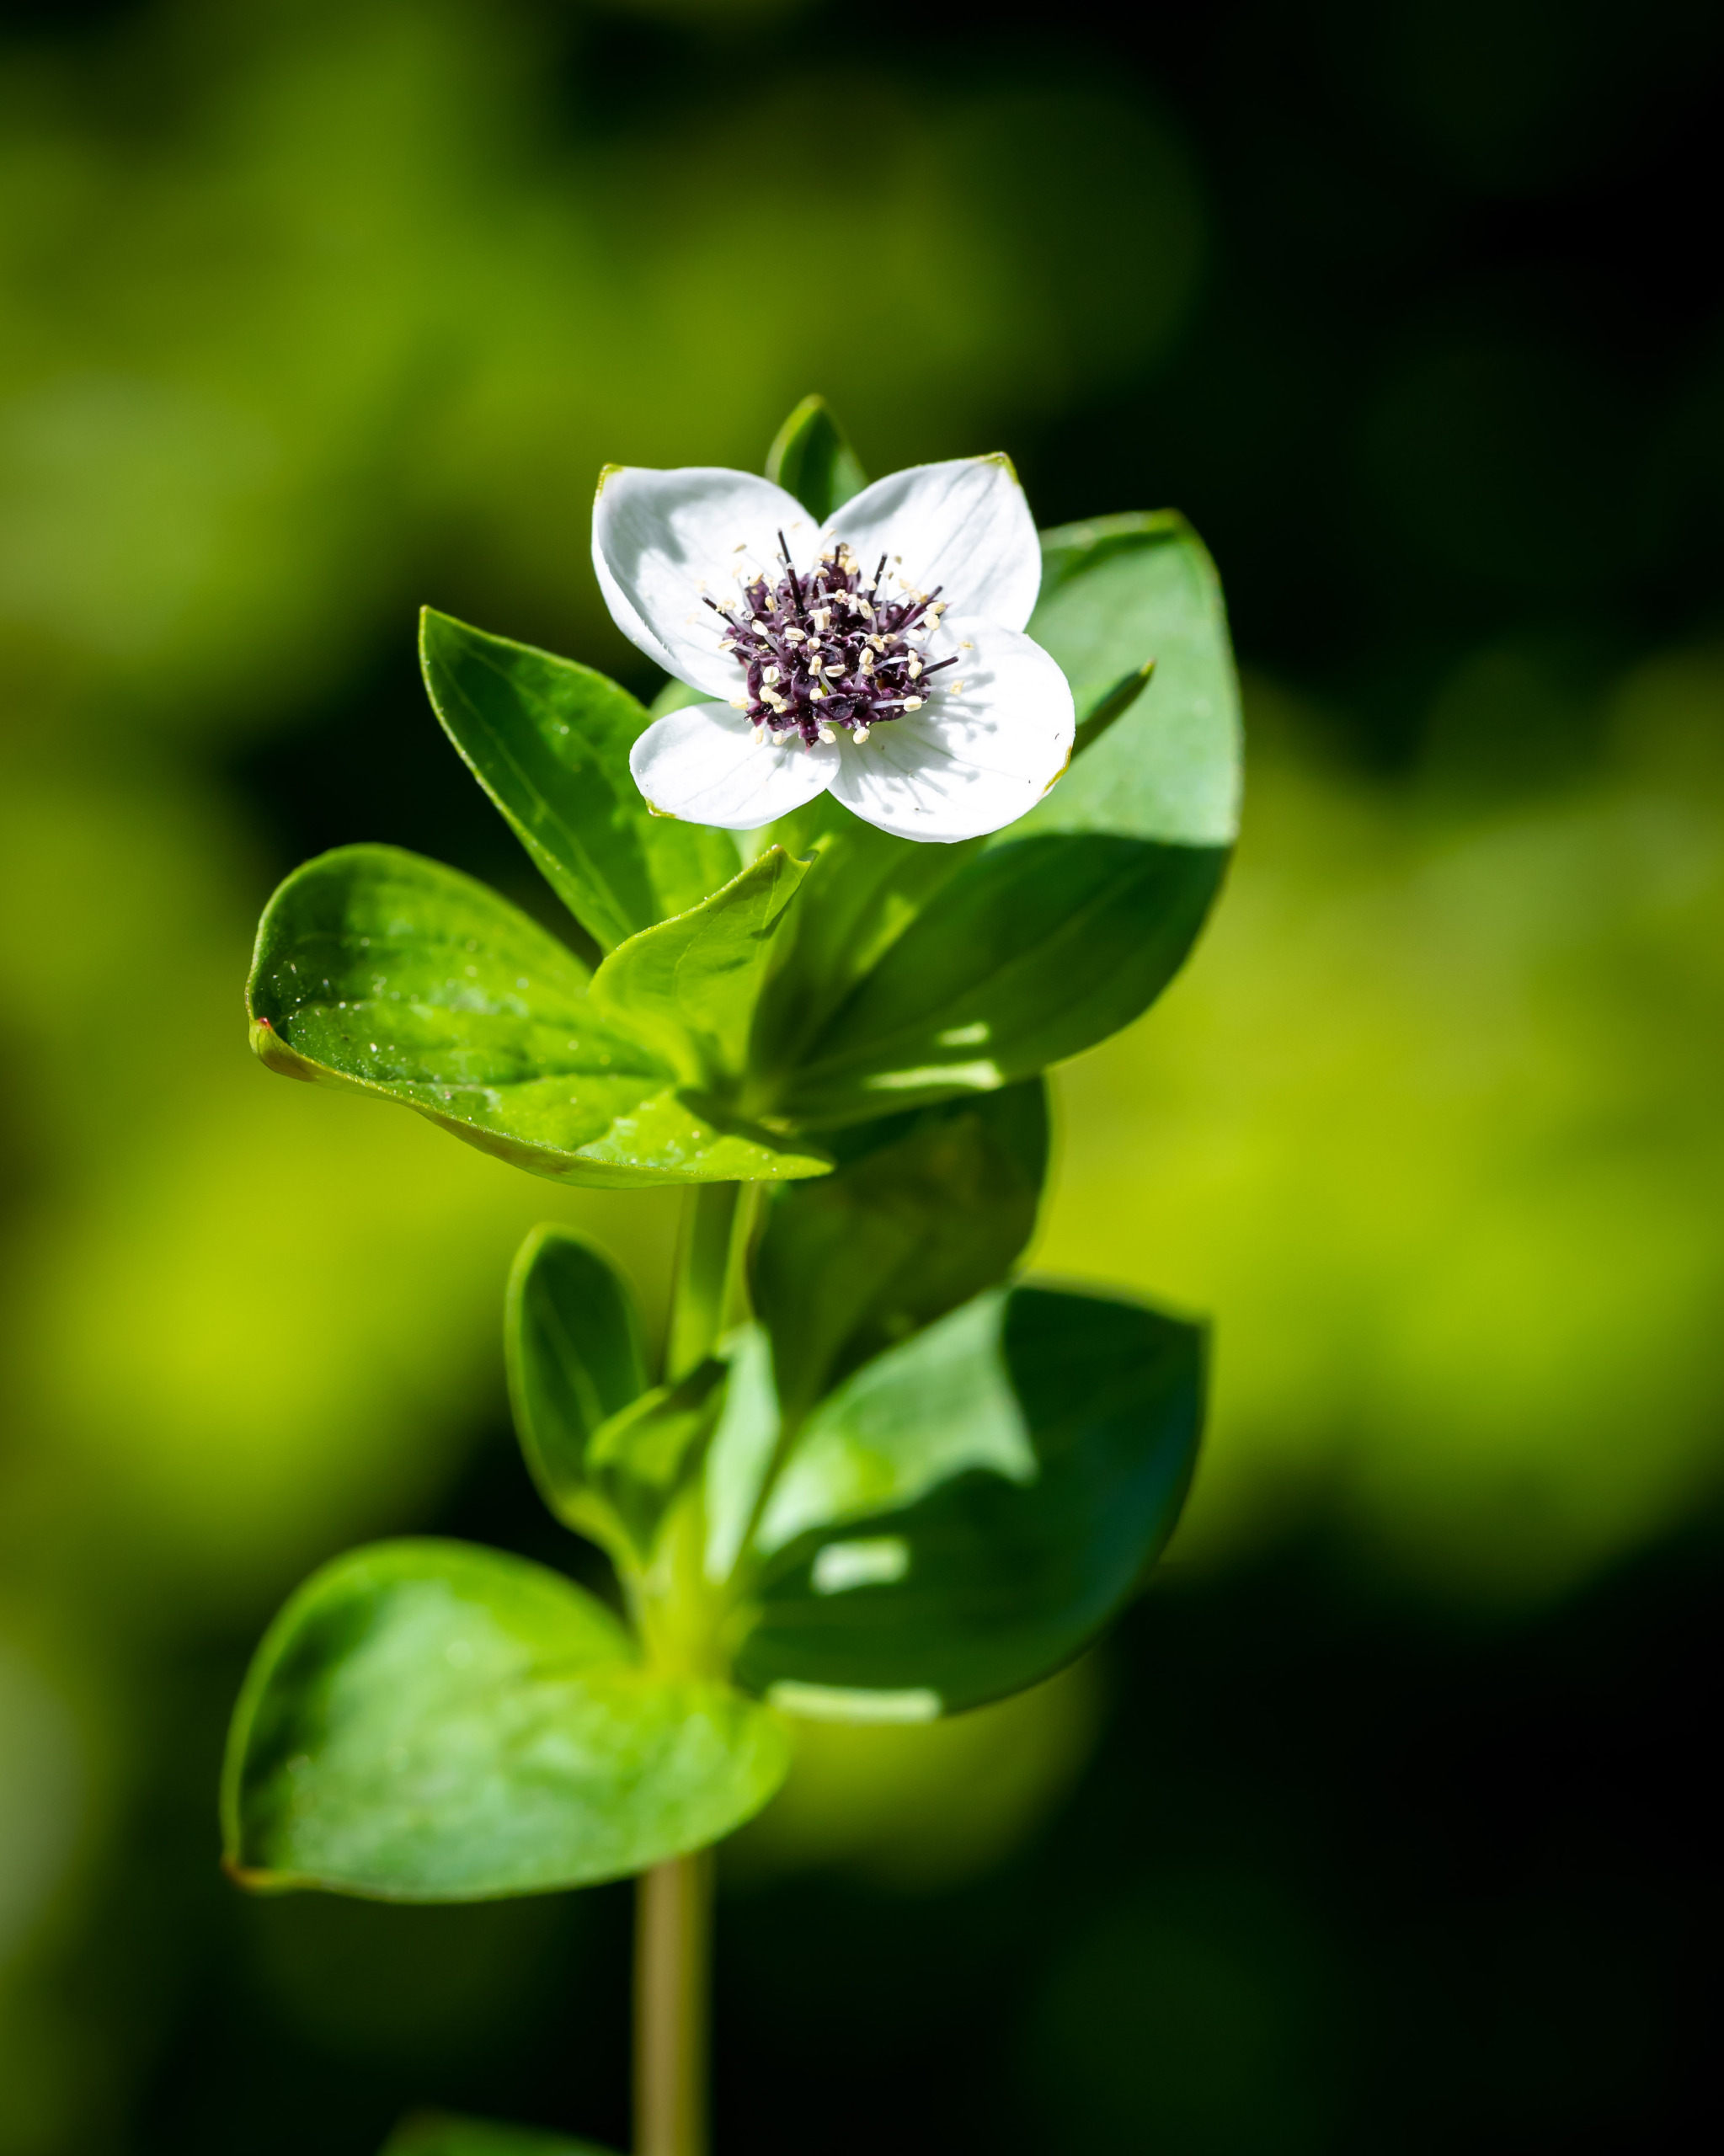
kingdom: Plantae
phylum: Tracheophyta
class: Magnoliopsida
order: Cornales
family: Cornaceae
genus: Cornus
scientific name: Cornus suecica
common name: Hønsebær
